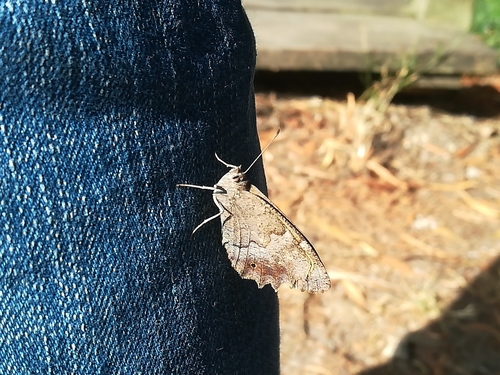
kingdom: Animalia
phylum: Arthropoda
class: Insecta
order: Lepidoptera
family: Nymphalidae
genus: Hipparchia
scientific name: Hipparchia statilinus
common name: Tree grayling
